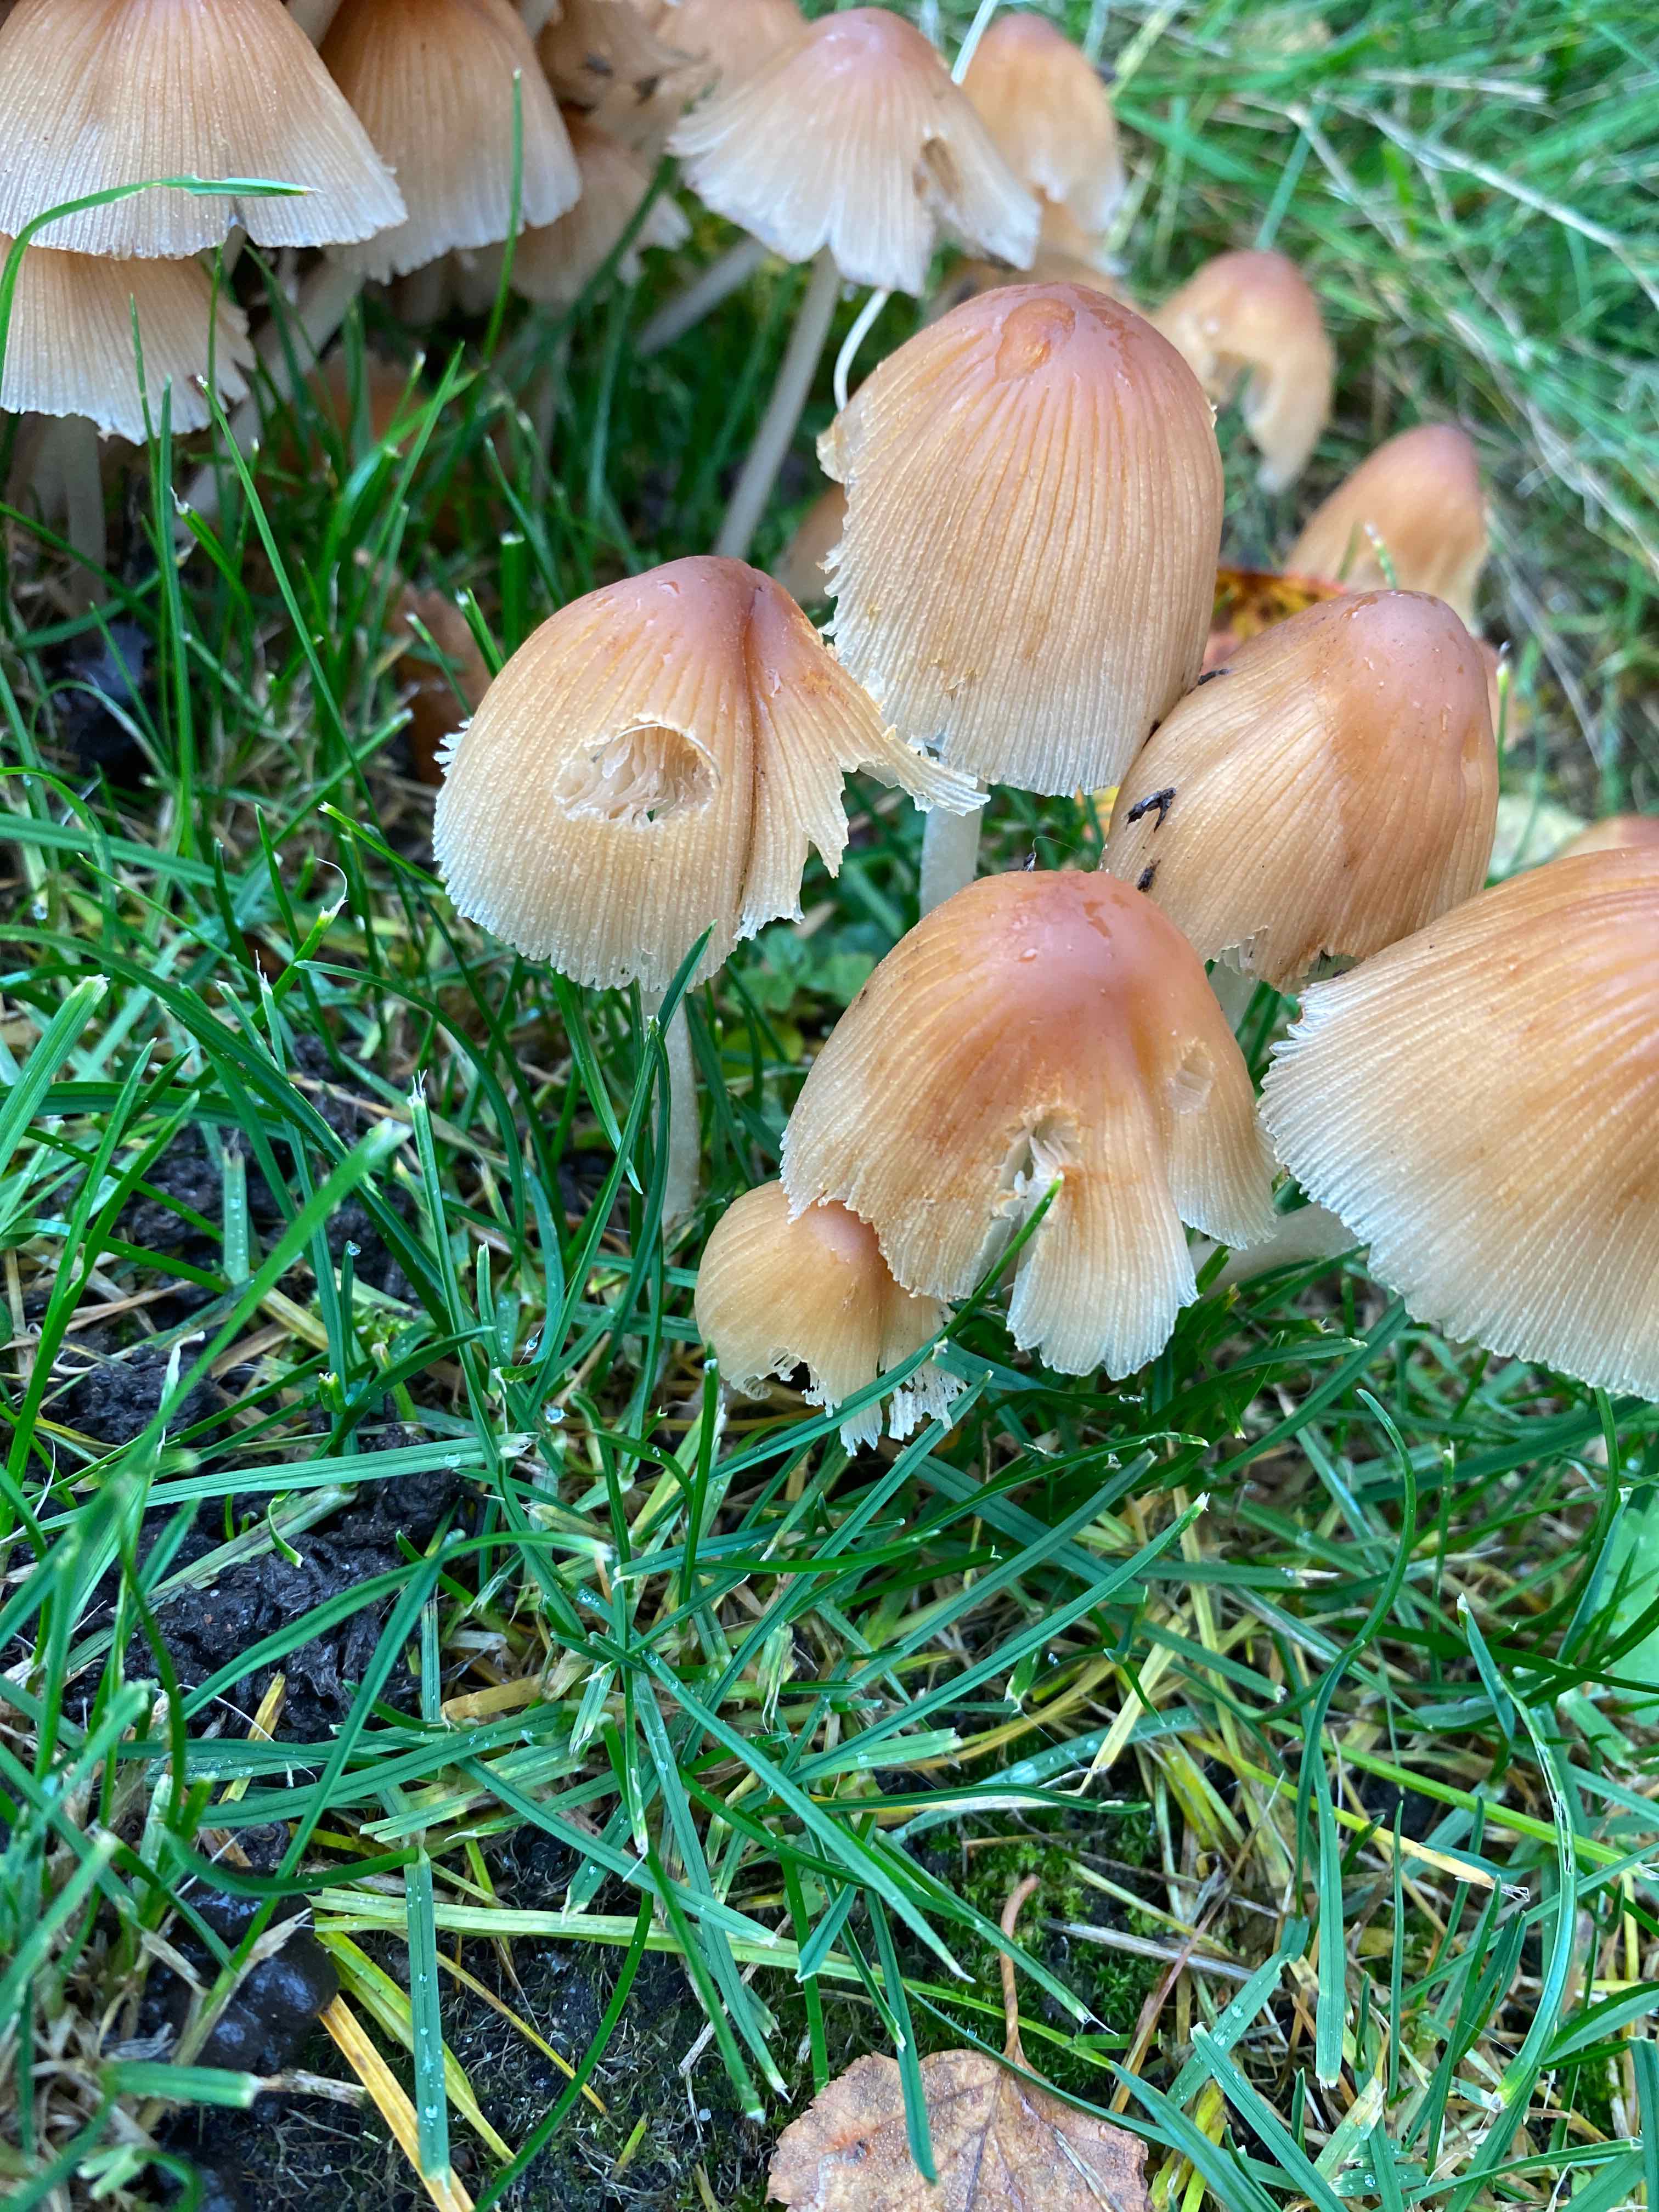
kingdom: Fungi
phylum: Basidiomycota
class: Agaricomycetes
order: Agaricales
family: Psathyrellaceae
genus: Coprinellus
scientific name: Coprinellus micaceus
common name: glimmer-blækhat
